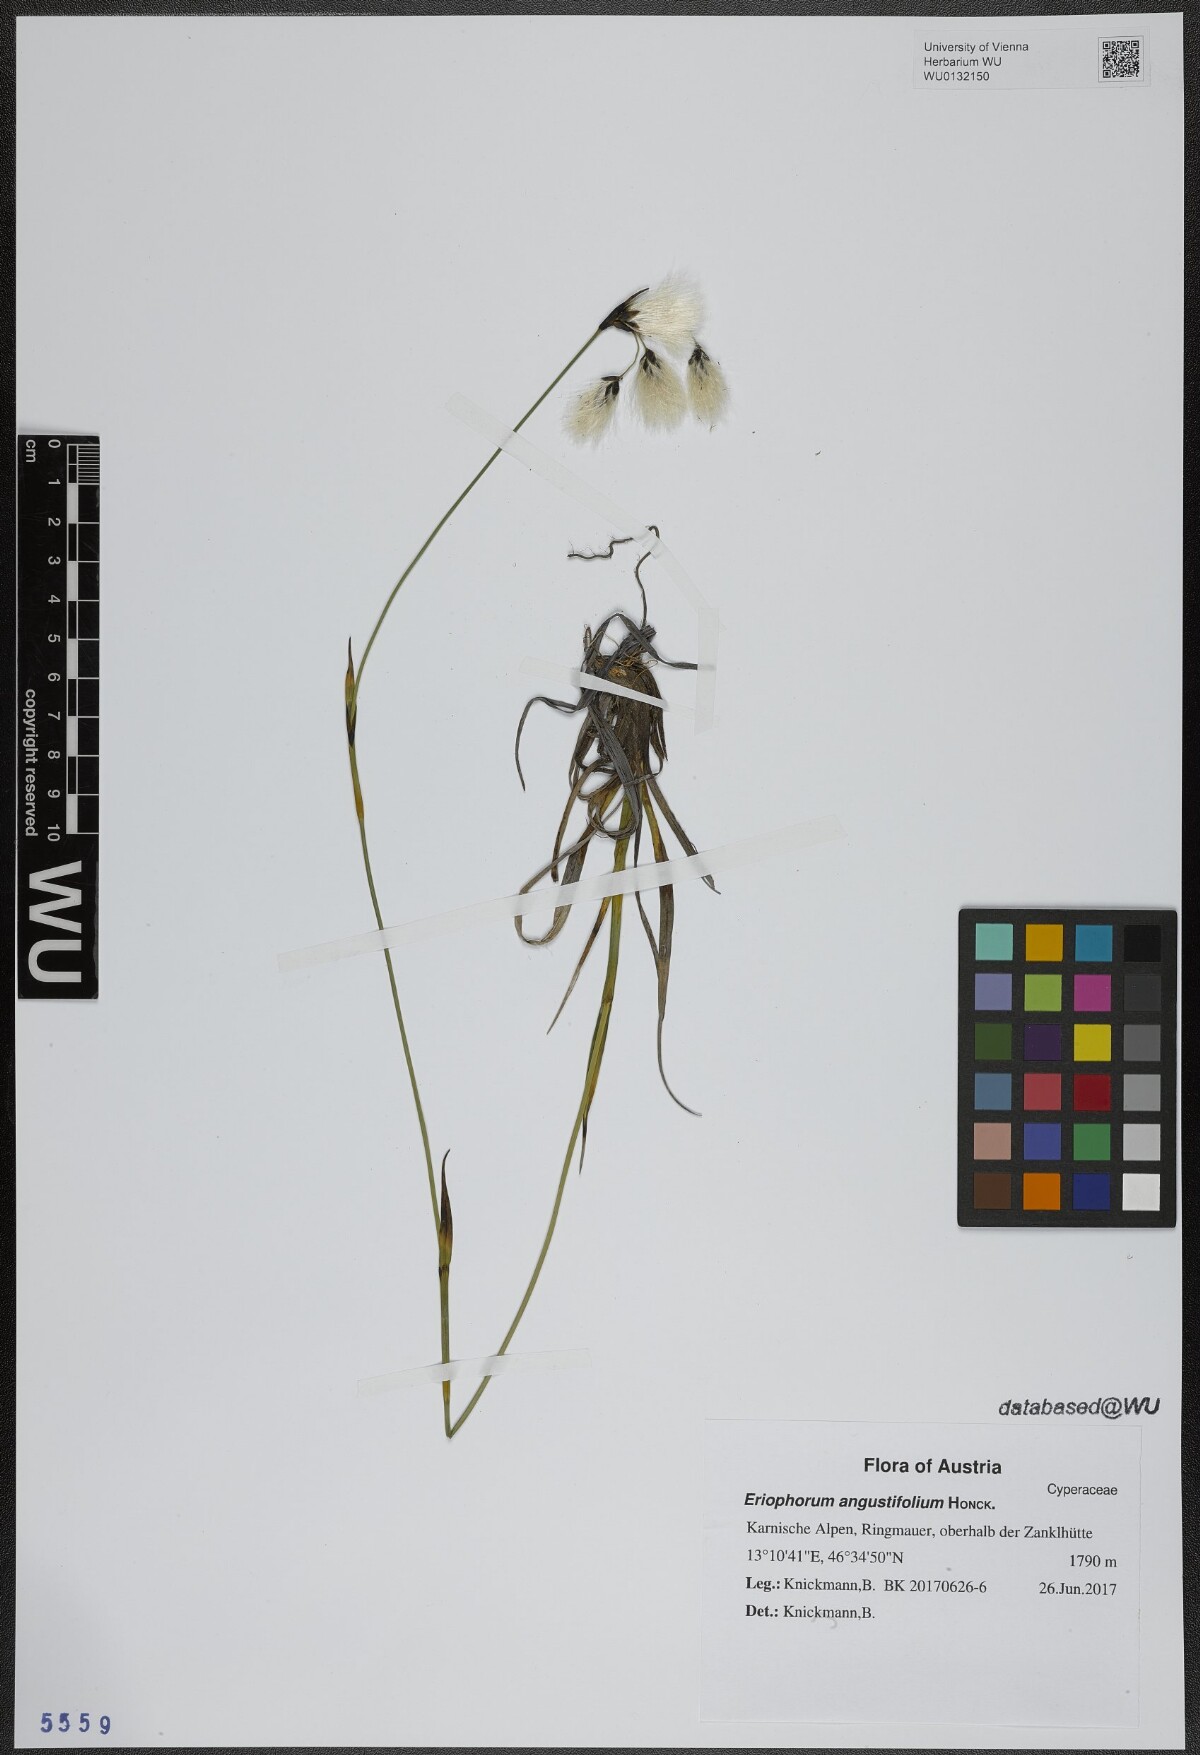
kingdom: Plantae
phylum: Tracheophyta
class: Liliopsida
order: Poales
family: Cyperaceae
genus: Eriophorum
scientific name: Eriophorum angustifolium
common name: Common cottongrass
